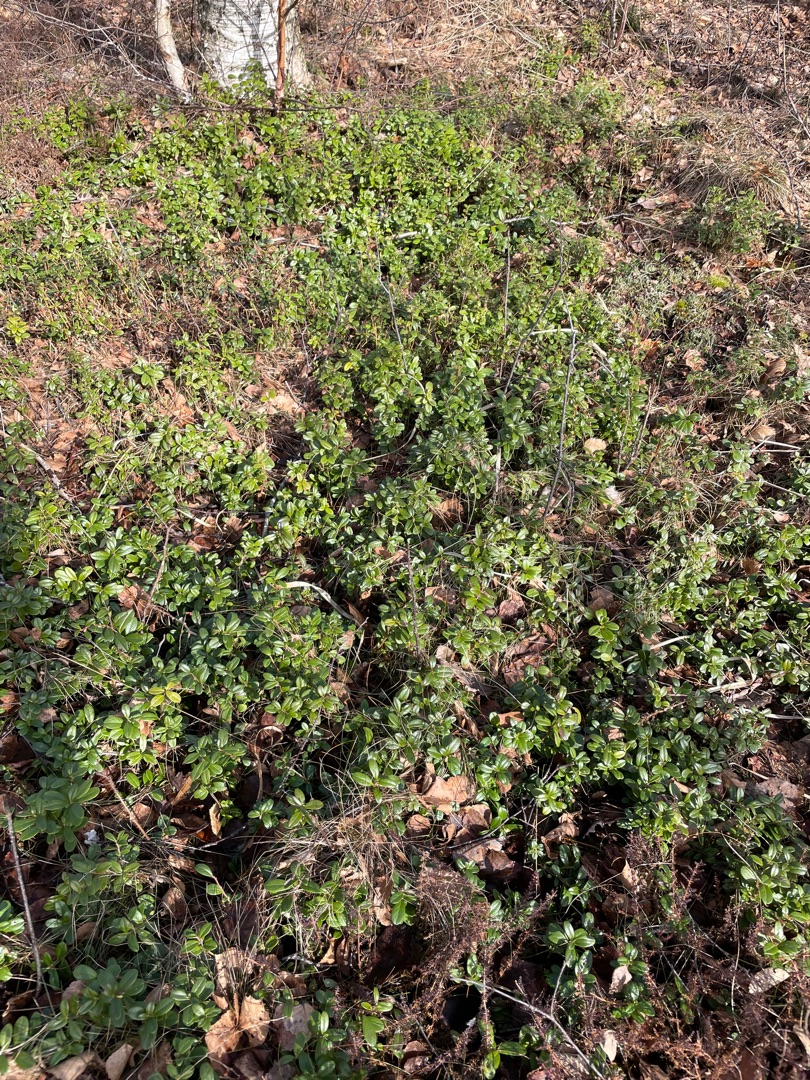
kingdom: Plantae
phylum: Tracheophyta
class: Magnoliopsida
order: Ericales
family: Ericaceae
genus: Vaccinium
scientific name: Vaccinium vitis-idaea
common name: Tyttebær
